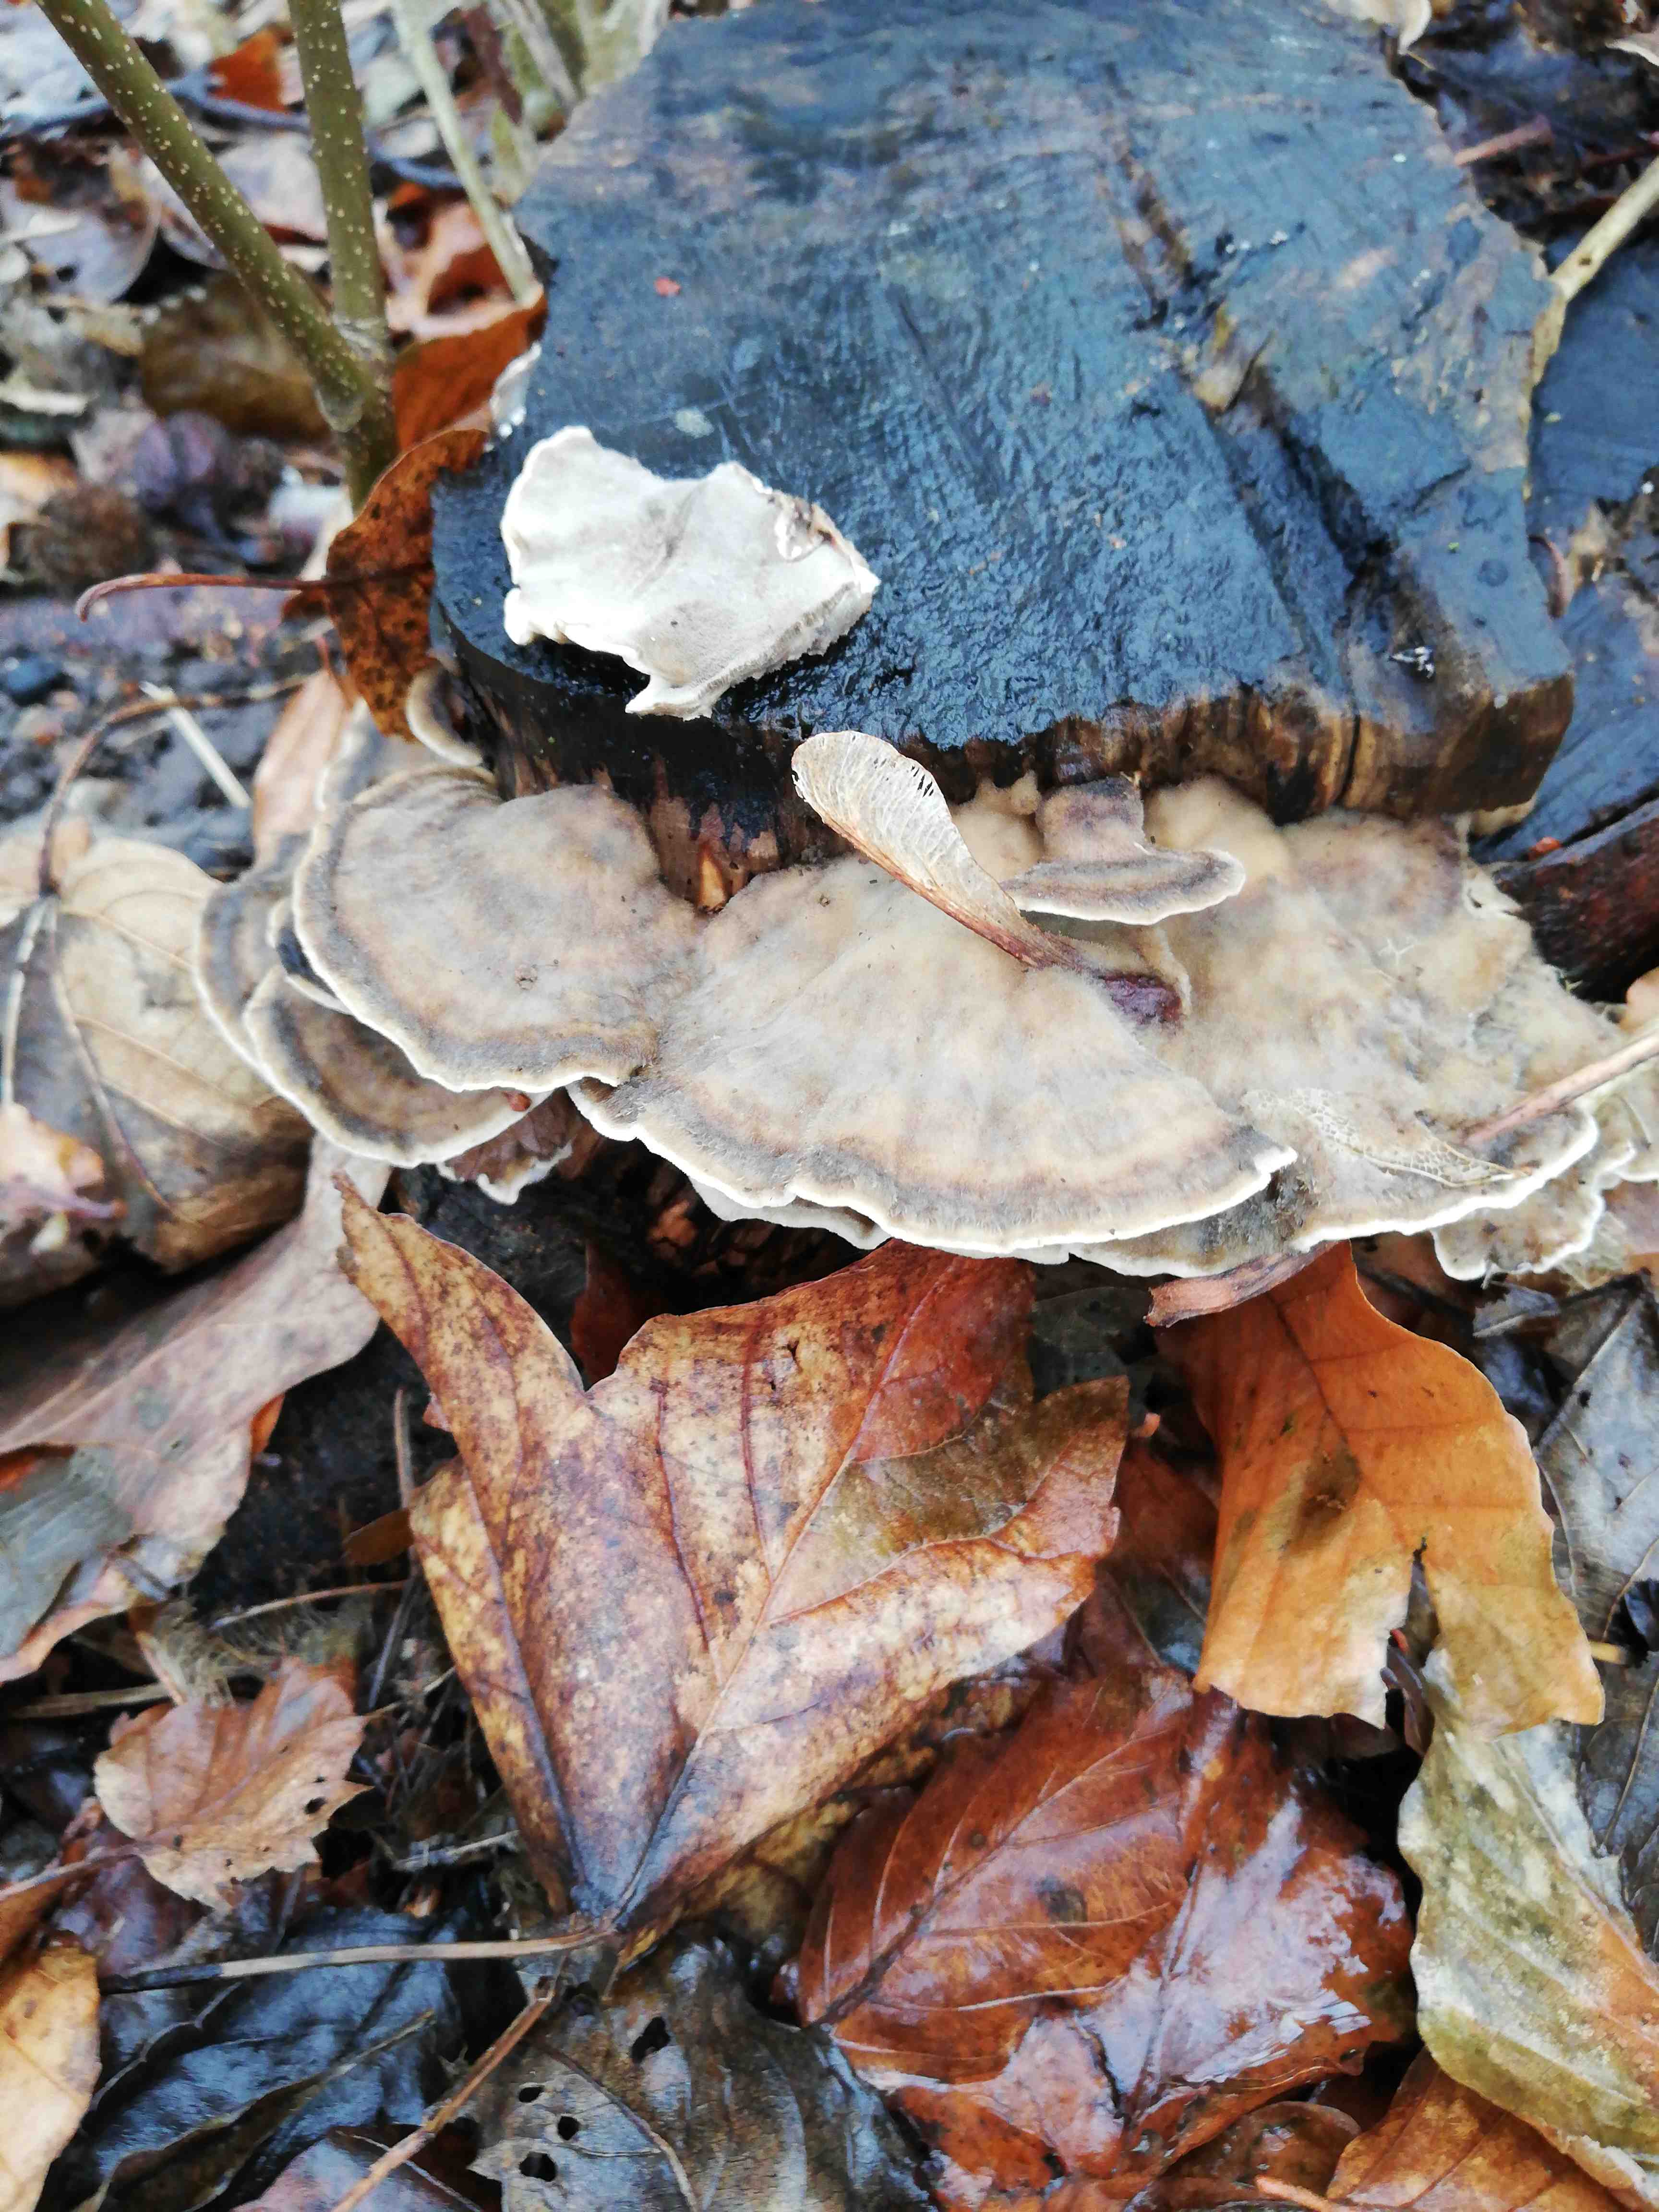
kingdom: Fungi
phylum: Basidiomycota
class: Agaricomycetes
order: Polyporales
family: Phanerochaetaceae
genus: Bjerkandera
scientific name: Bjerkandera adusta
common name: sveden sodporesvamp
